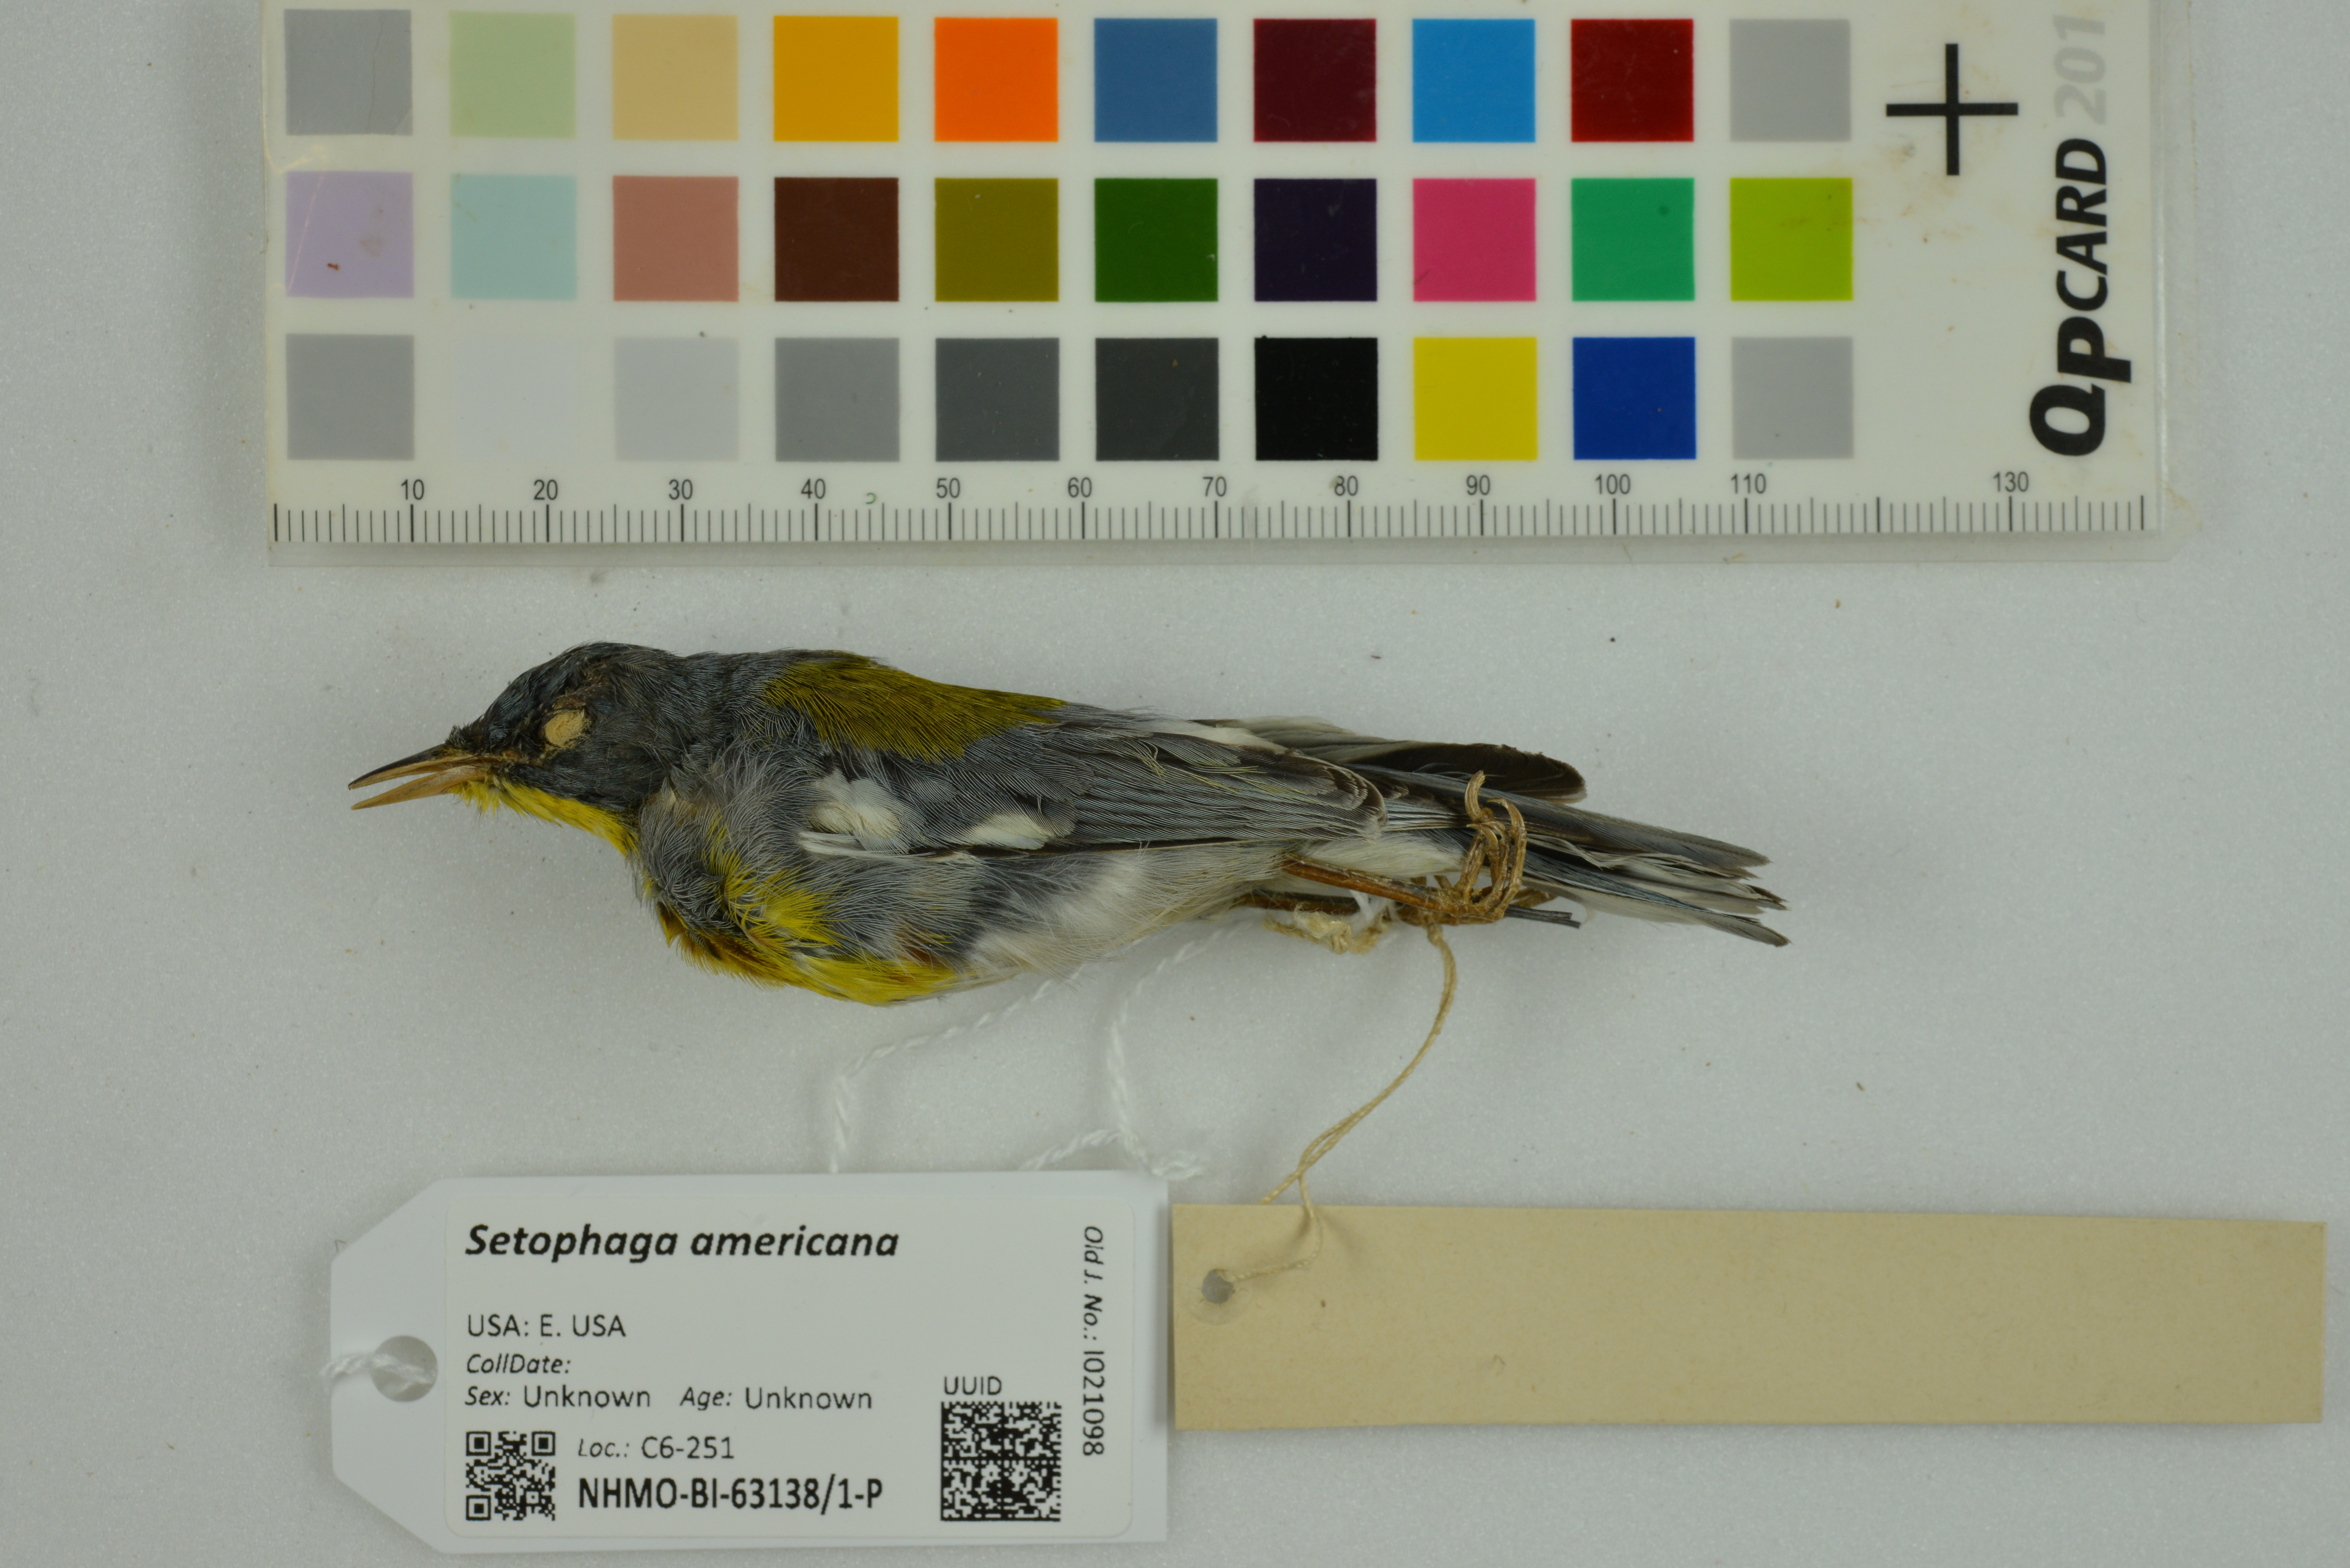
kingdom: Animalia
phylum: Chordata
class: Aves
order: Passeriformes
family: Parulidae
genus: Setophaga
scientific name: Setophaga americana
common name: Northern parula
